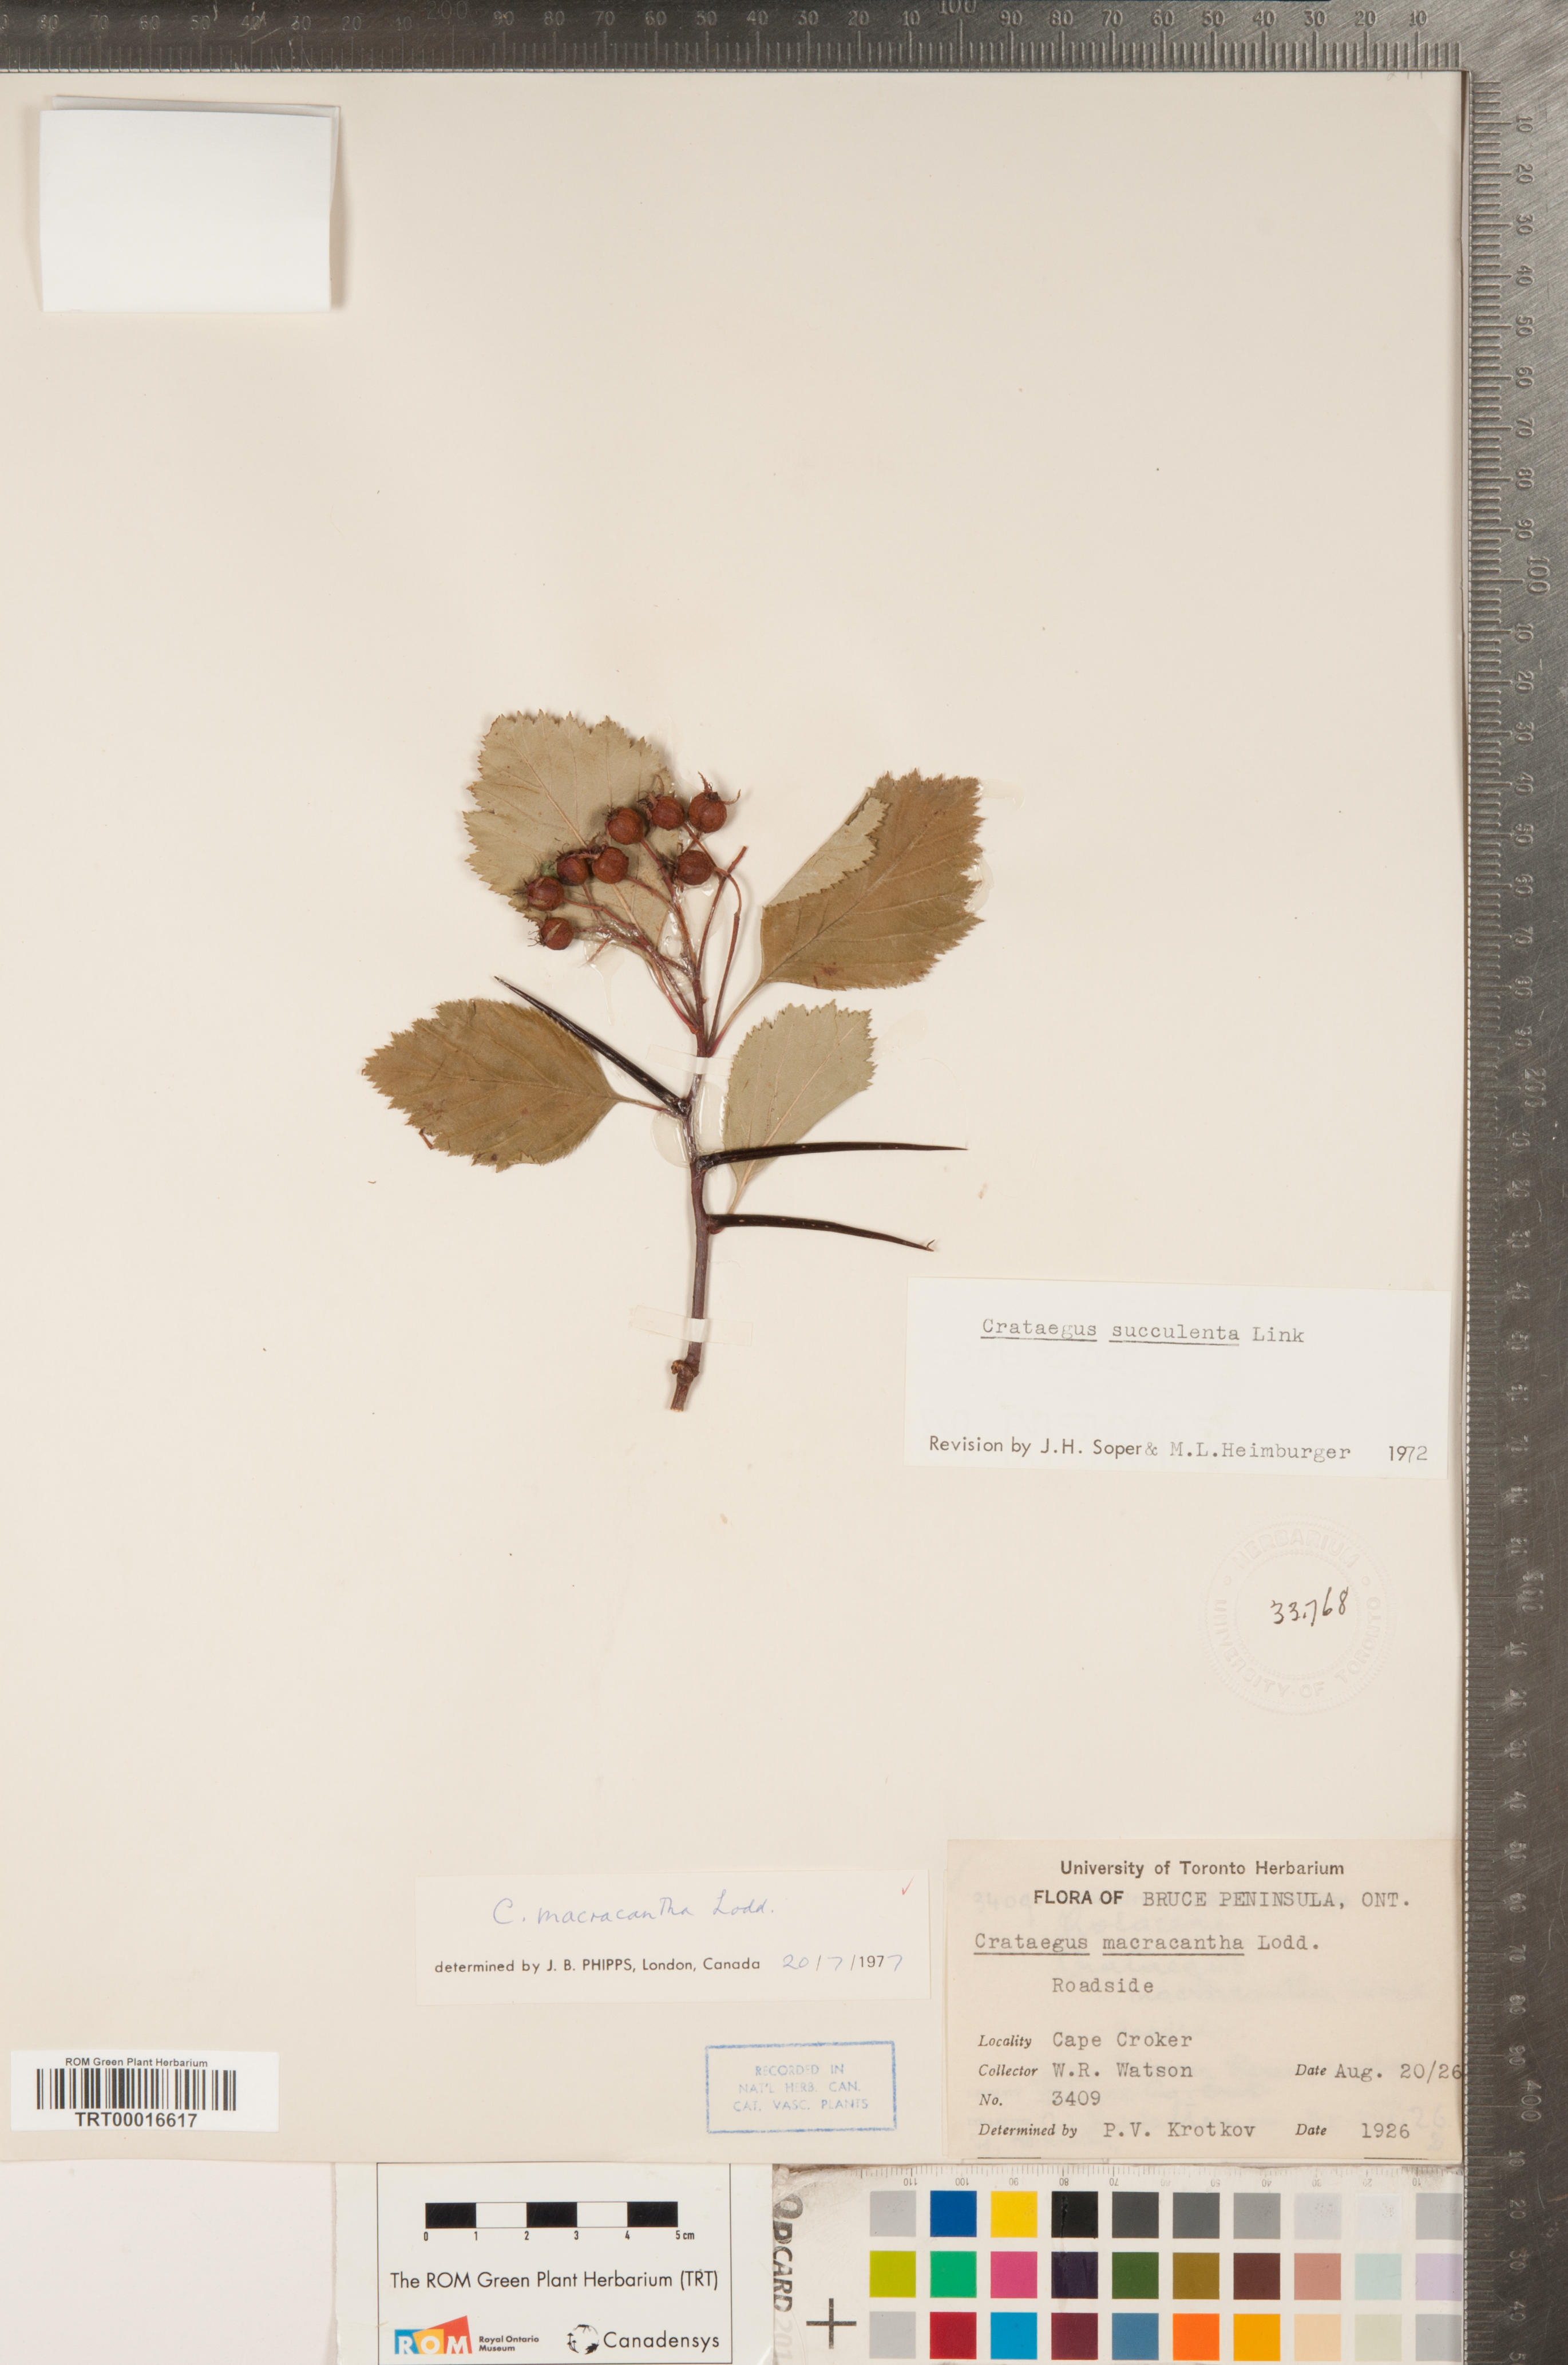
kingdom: Plantae
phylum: Tracheophyta
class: Magnoliopsida
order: Rosales
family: Rosaceae
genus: Crataegus
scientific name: Crataegus macracantha
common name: Large-thorn hawthorn
